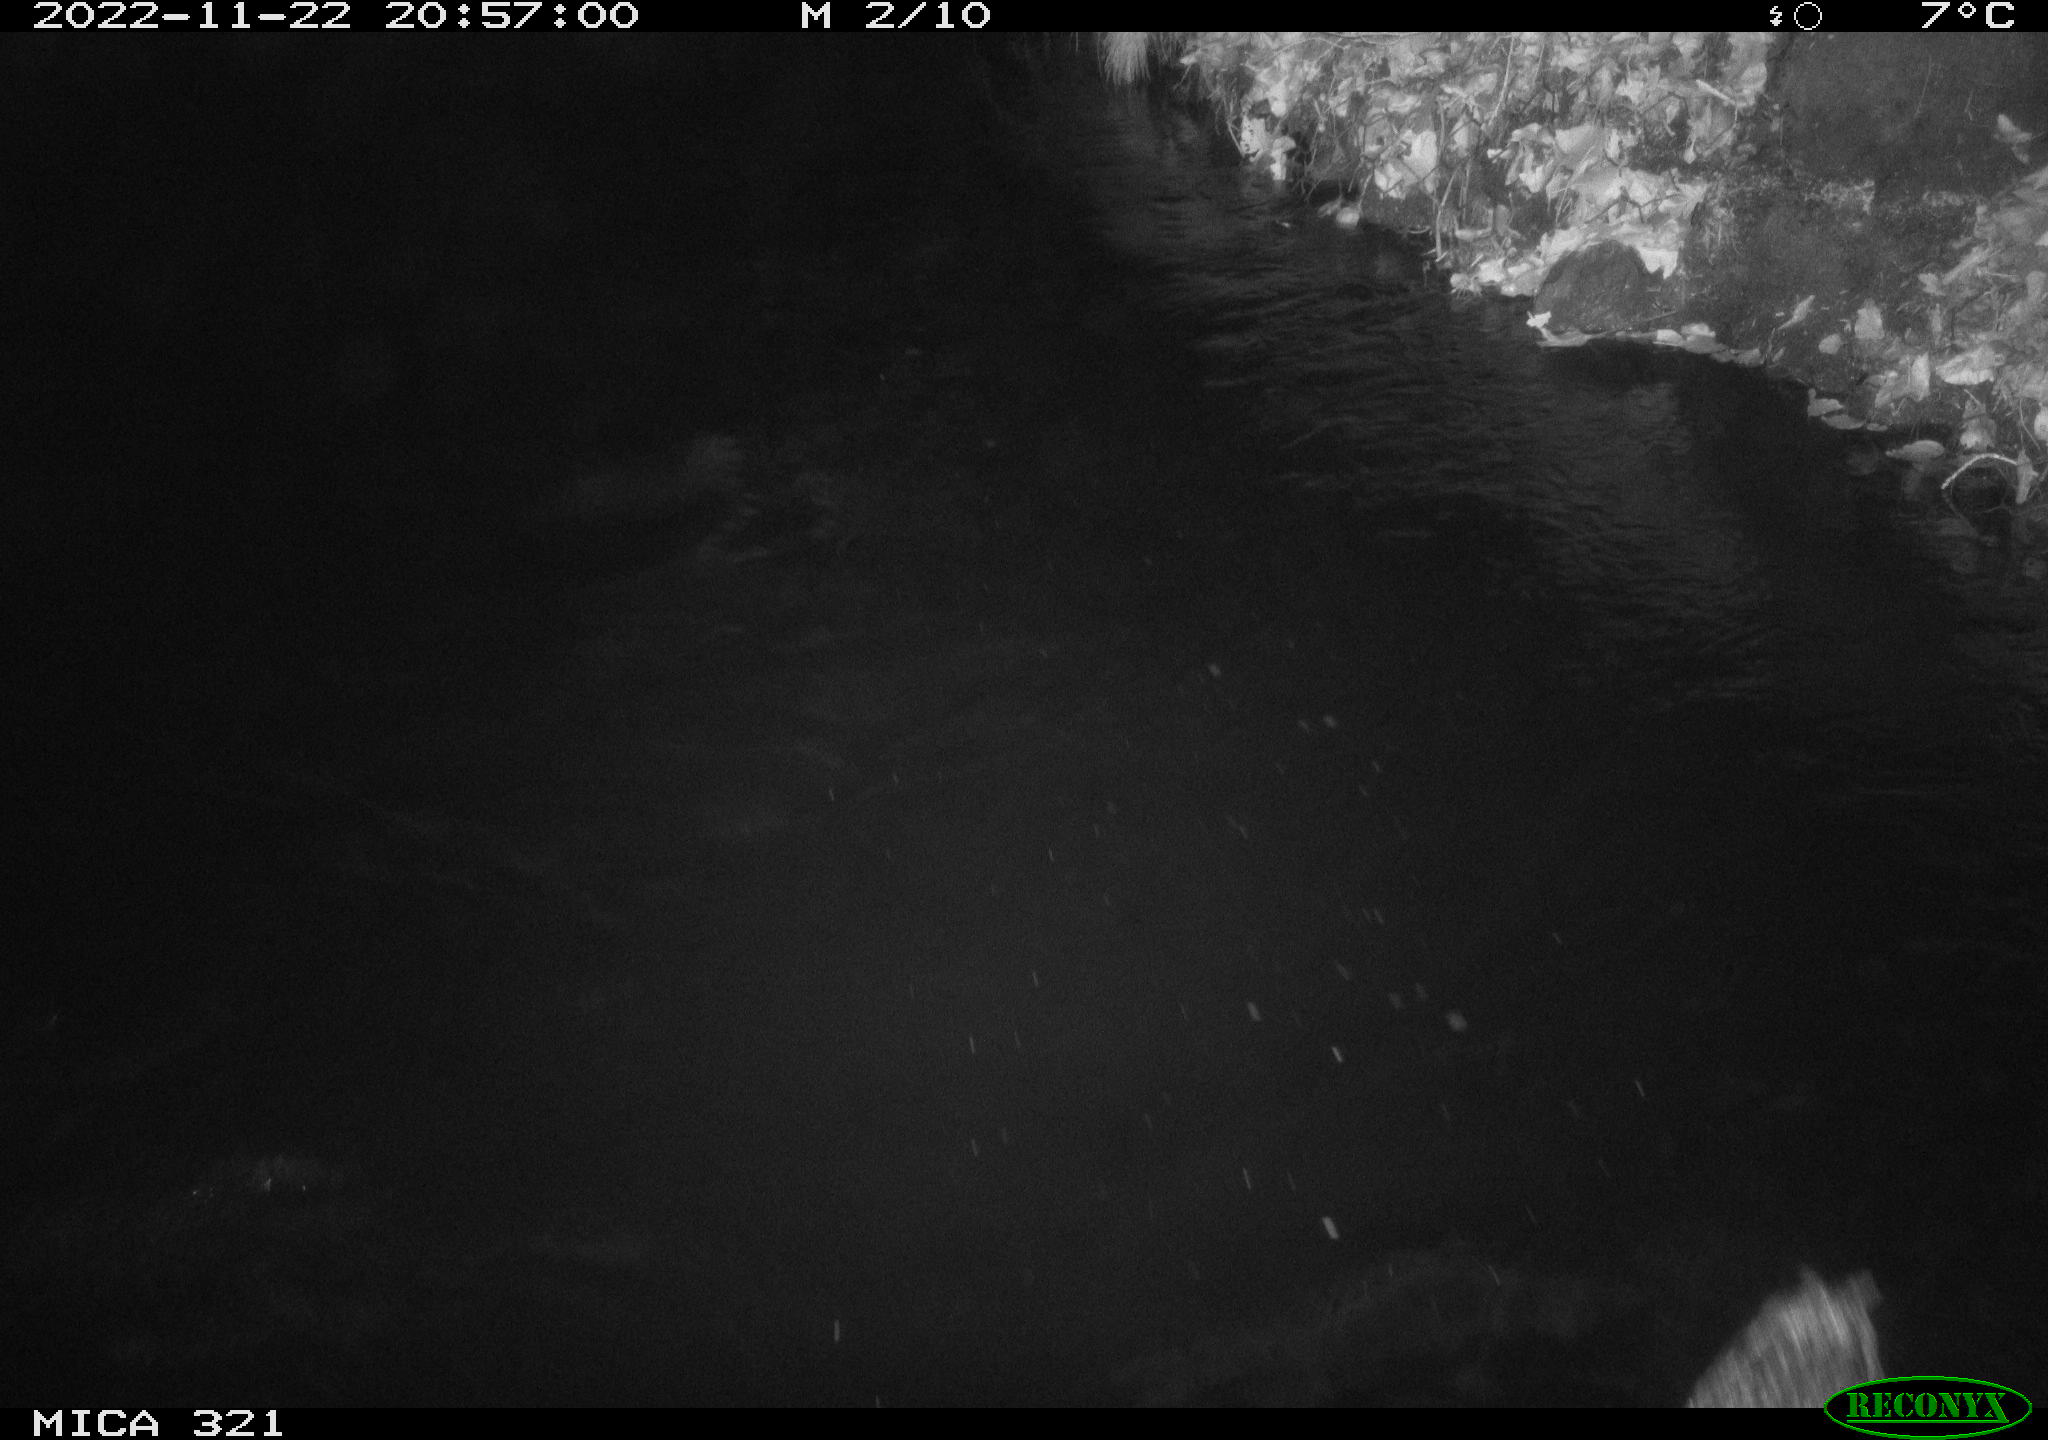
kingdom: Animalia
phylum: Chordata
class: Mammalia
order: Rodentia
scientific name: Rodentia
